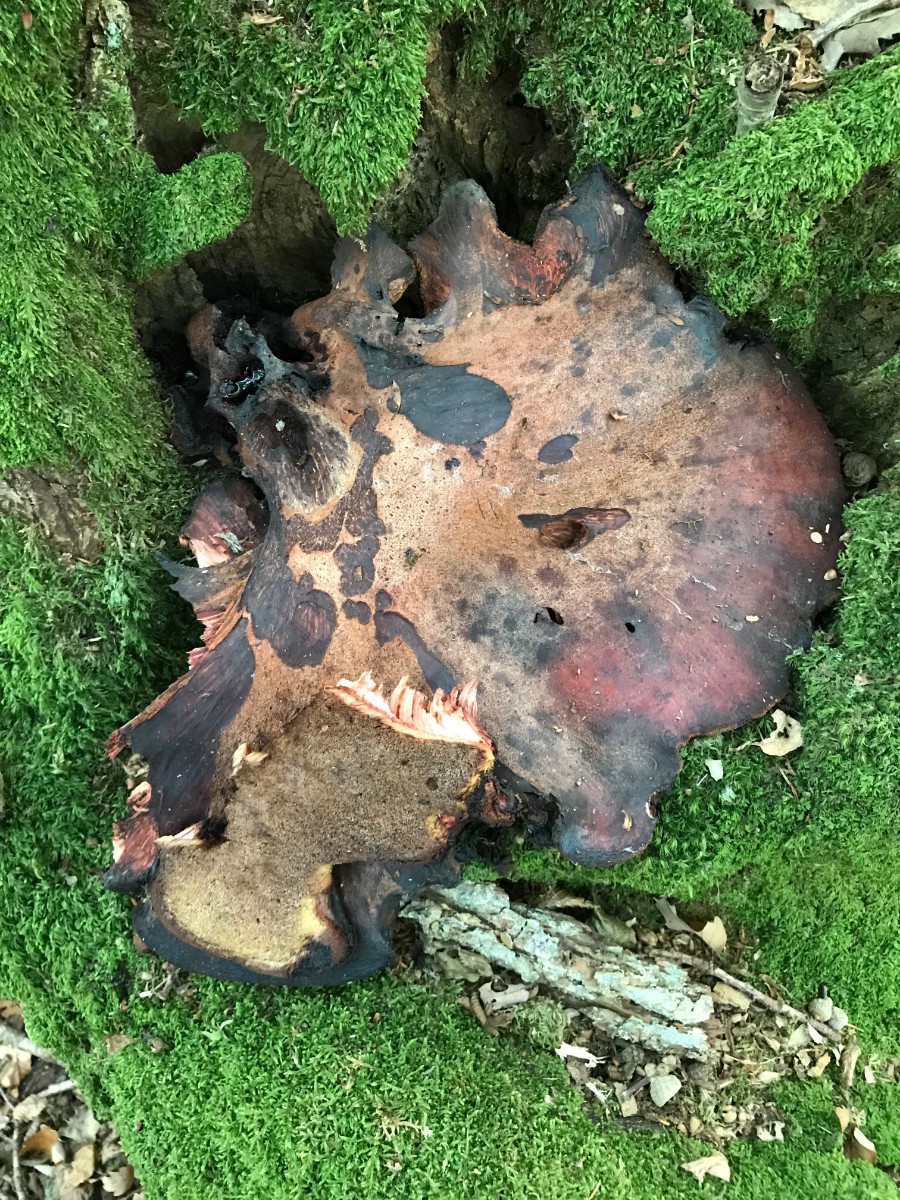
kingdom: Fungi
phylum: Basidiomycota
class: Agaricomycetes
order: Agaricales
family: Fistulinaceae
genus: Fistulina
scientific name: Fistulina hepatica
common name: oksetunge
